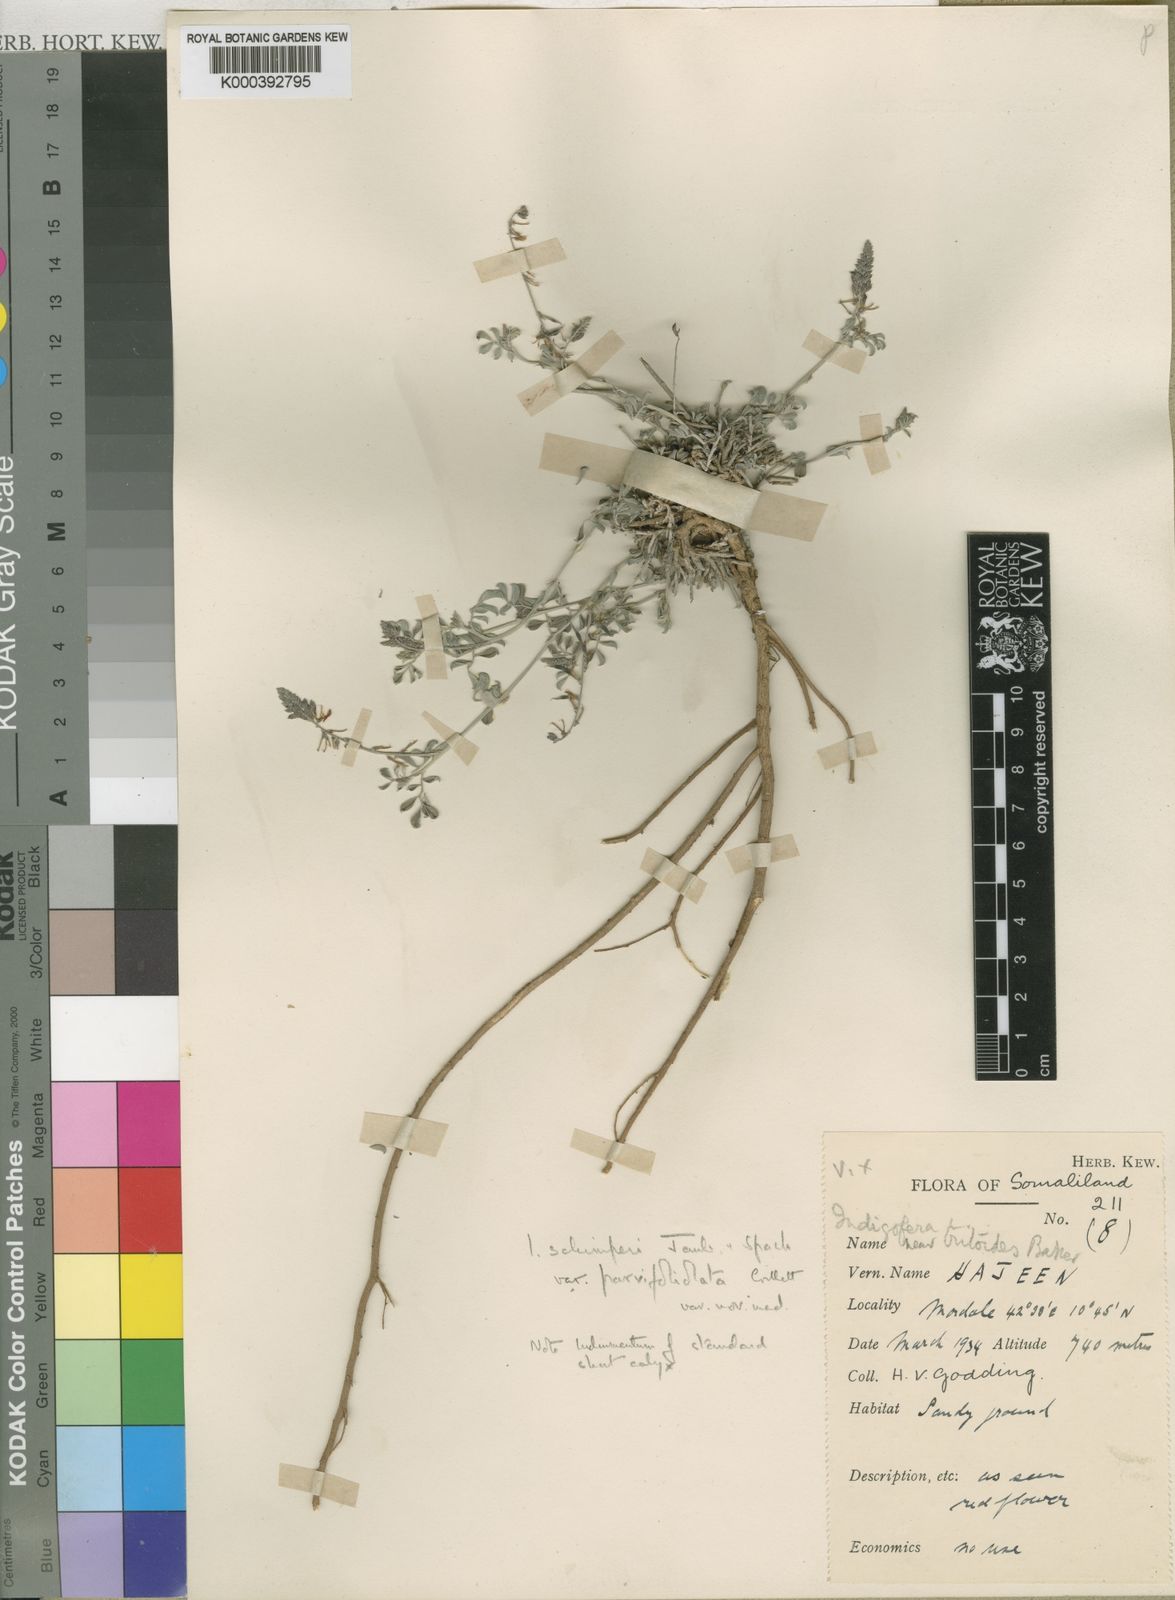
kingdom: Plantae
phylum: Tracheophyta
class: Magnoliopsida
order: Fabales
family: Fabaceae
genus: Indigofera
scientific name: Indigofera schimperi
